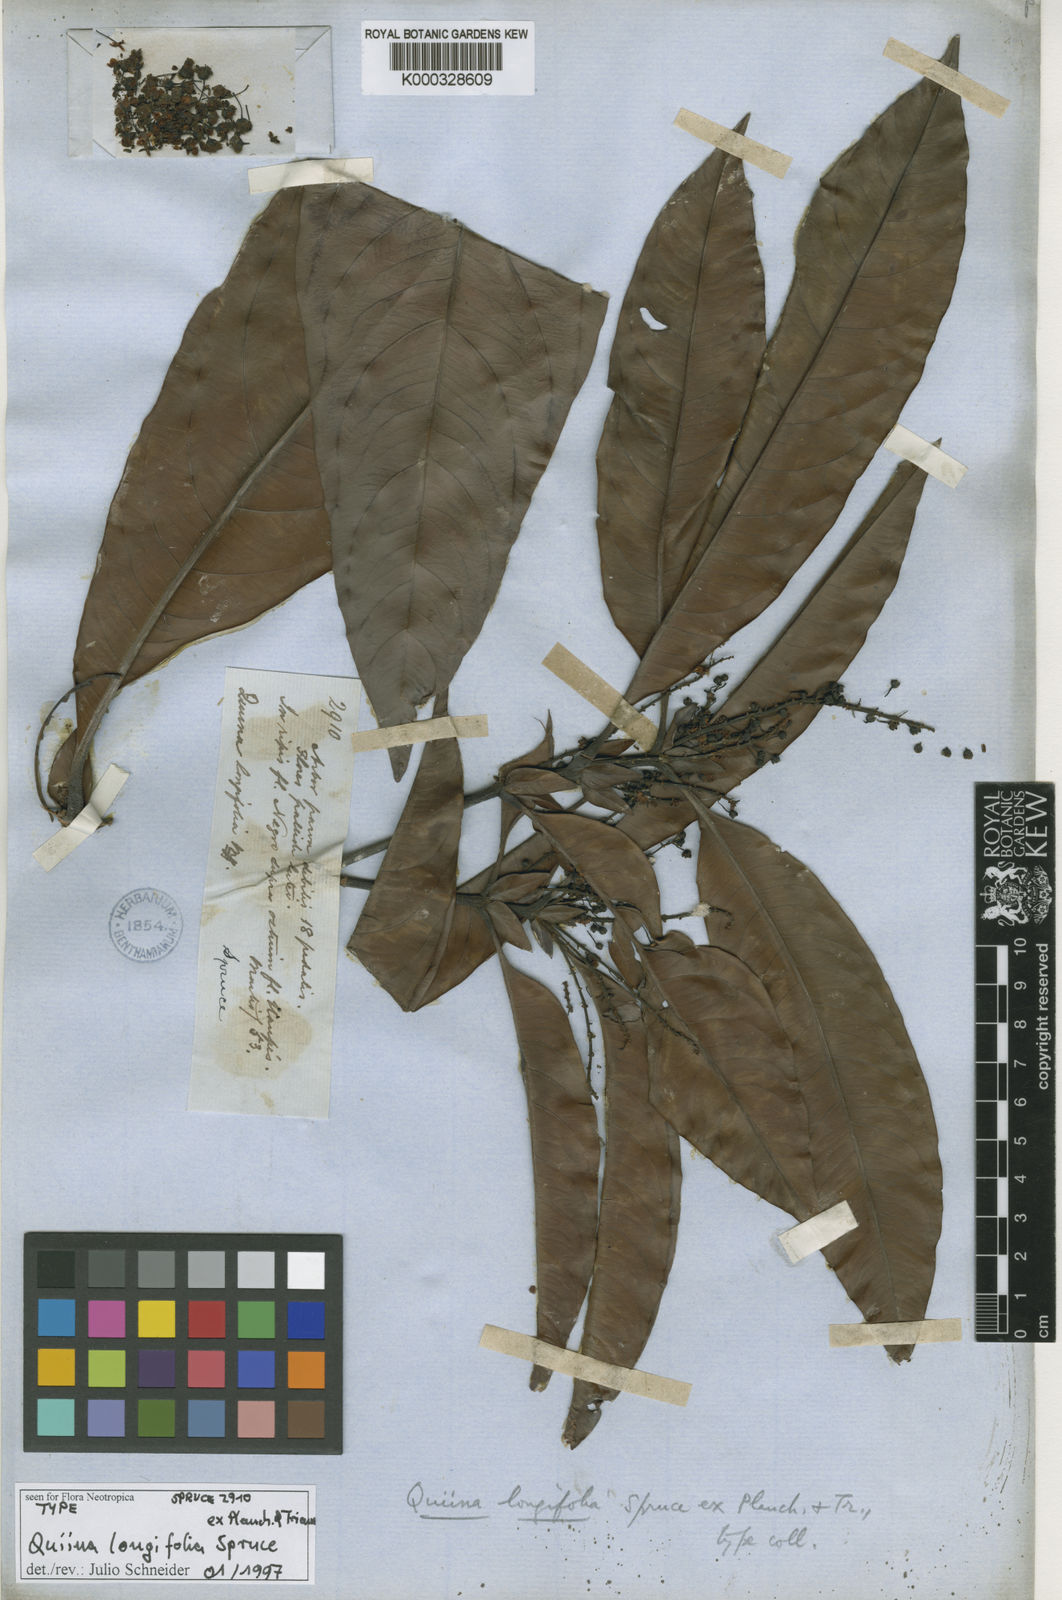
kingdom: Plantae
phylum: Tracheophyta
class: Magnoliopsida
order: Malpighiales
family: Quiinaceae
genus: Quiina
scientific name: Quiina longifolia
